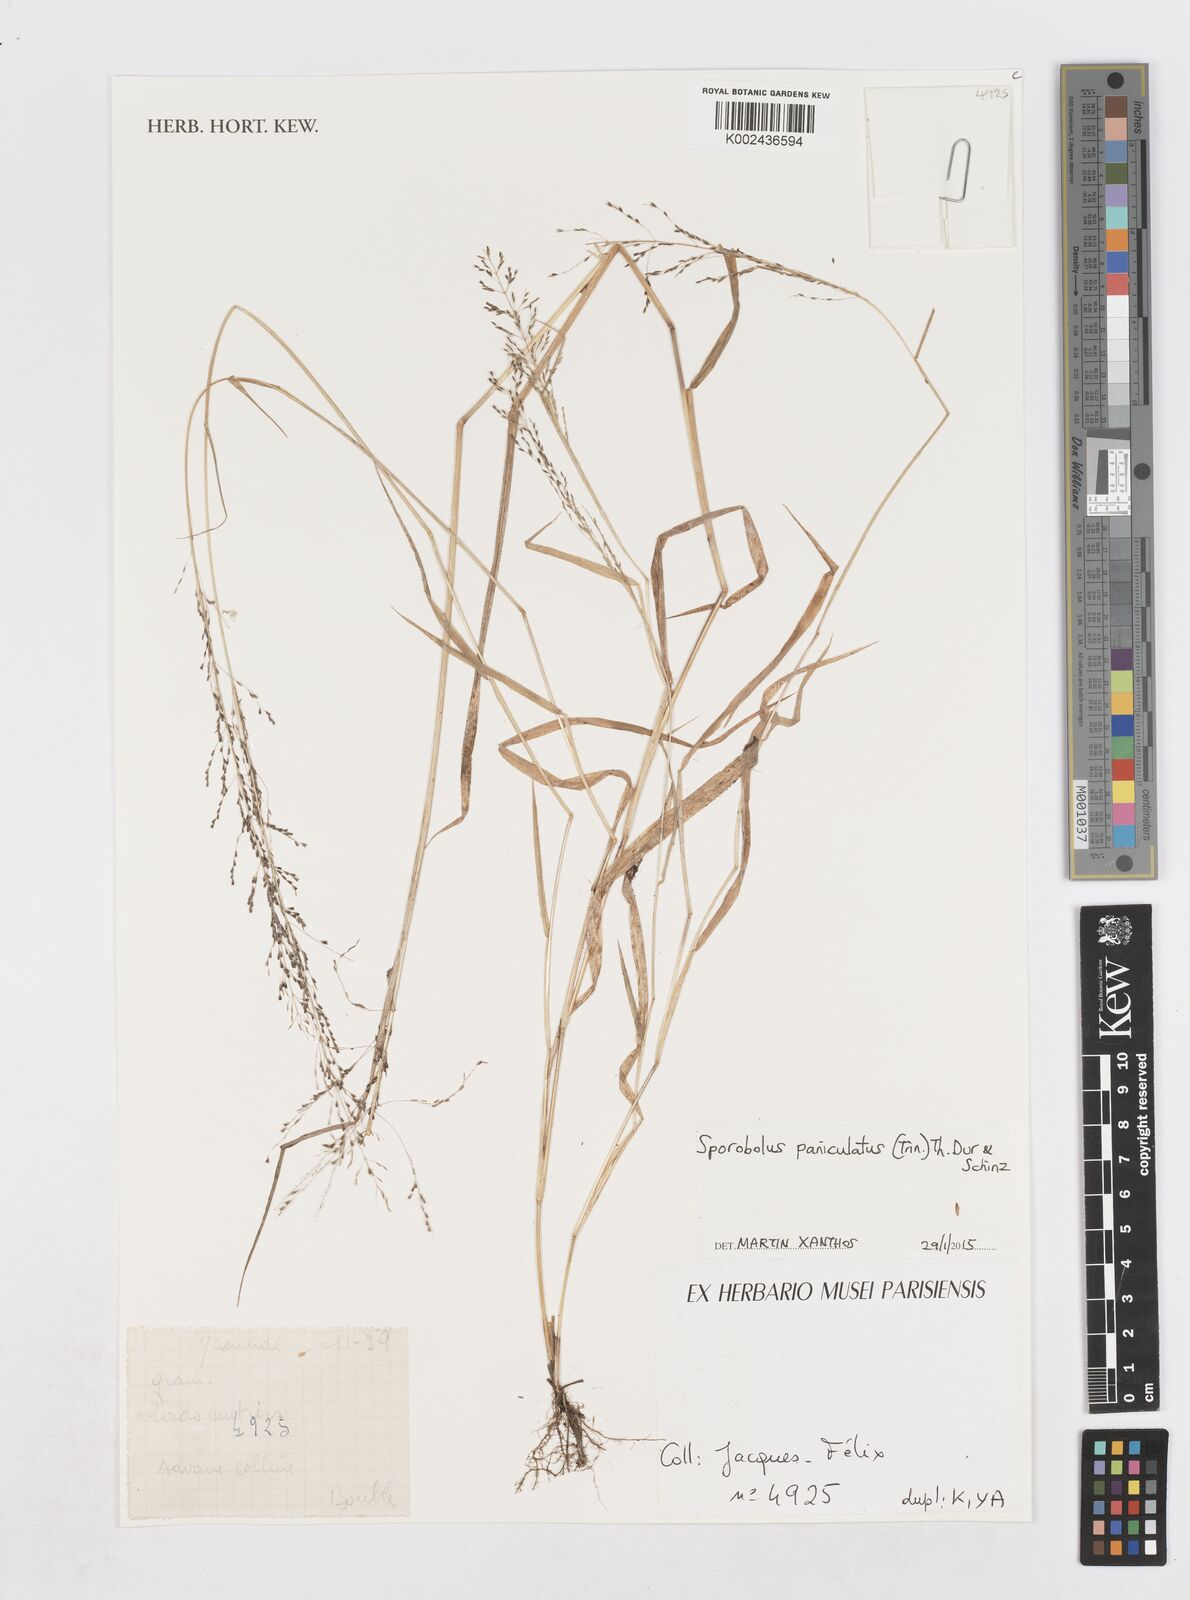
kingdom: Plantae
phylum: Tracheophyta
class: Liliopsida
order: Poales
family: Poaceae
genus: Sporobolus
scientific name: Sporobolus paniculatus
